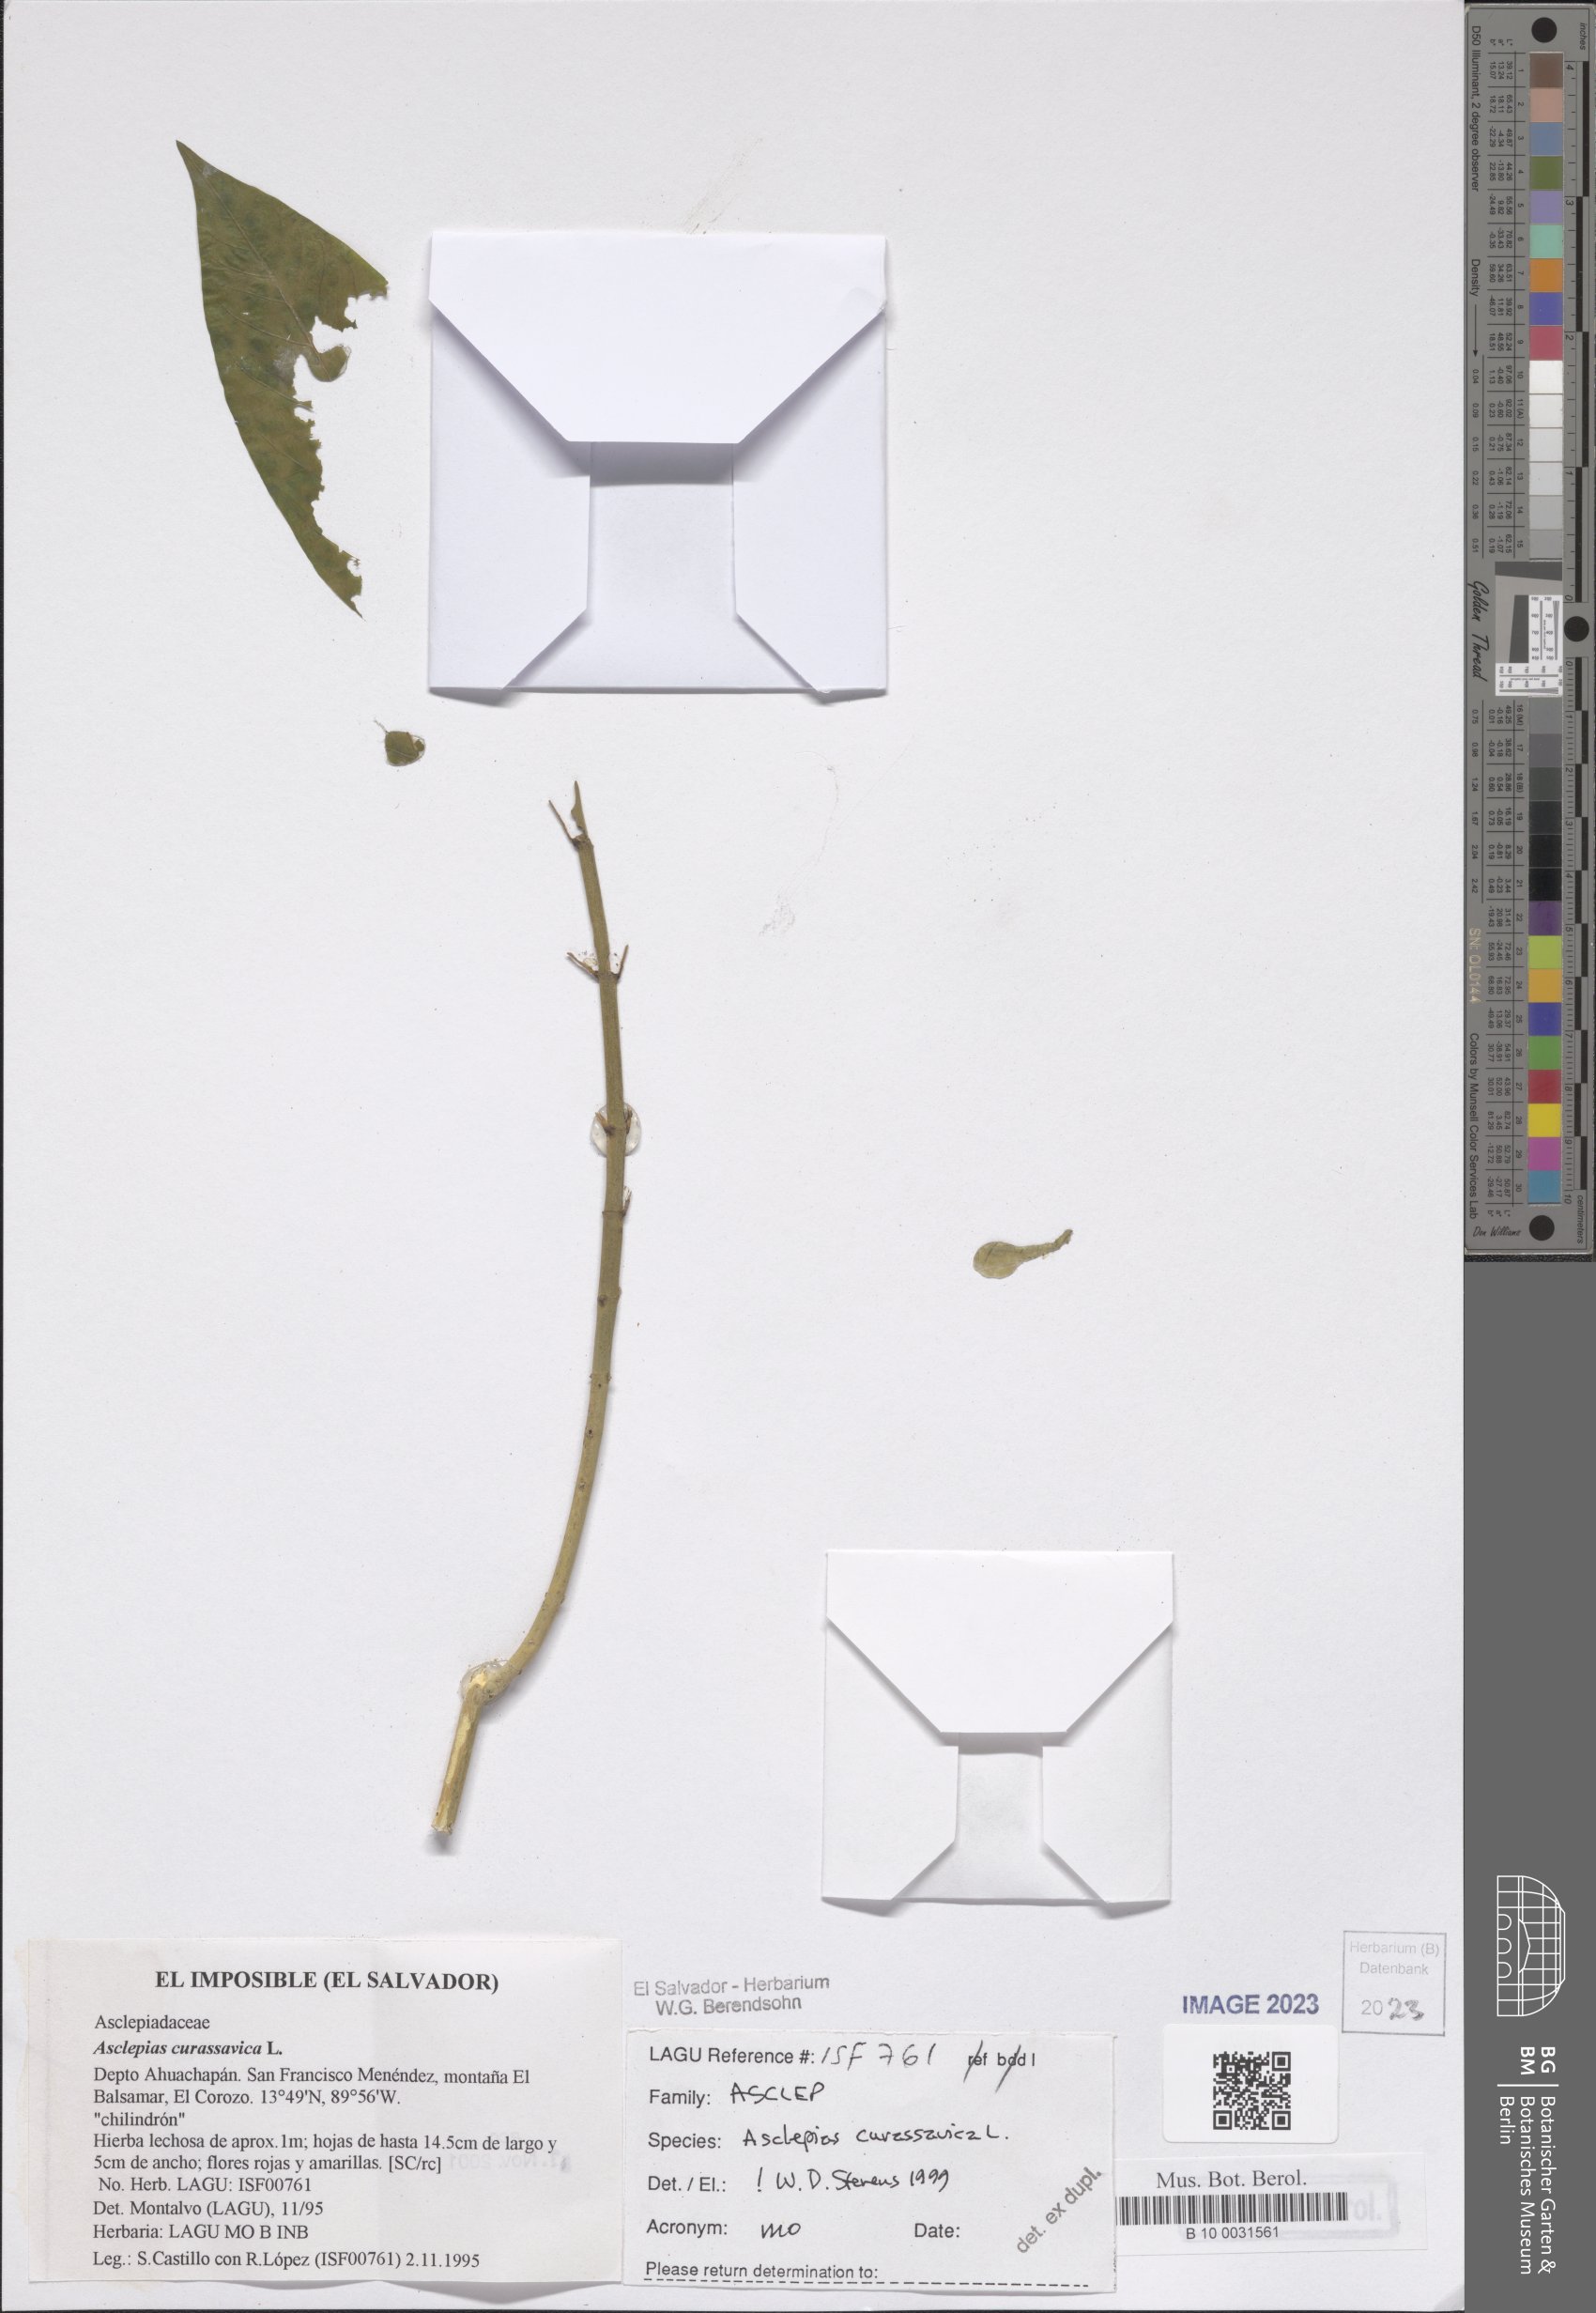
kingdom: Plantae
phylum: Tracheophyta
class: Magnoliopsida
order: Gentianales
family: Apocynaceae
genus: Asclepias
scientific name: Asclepias curassavica
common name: Bloodflower
